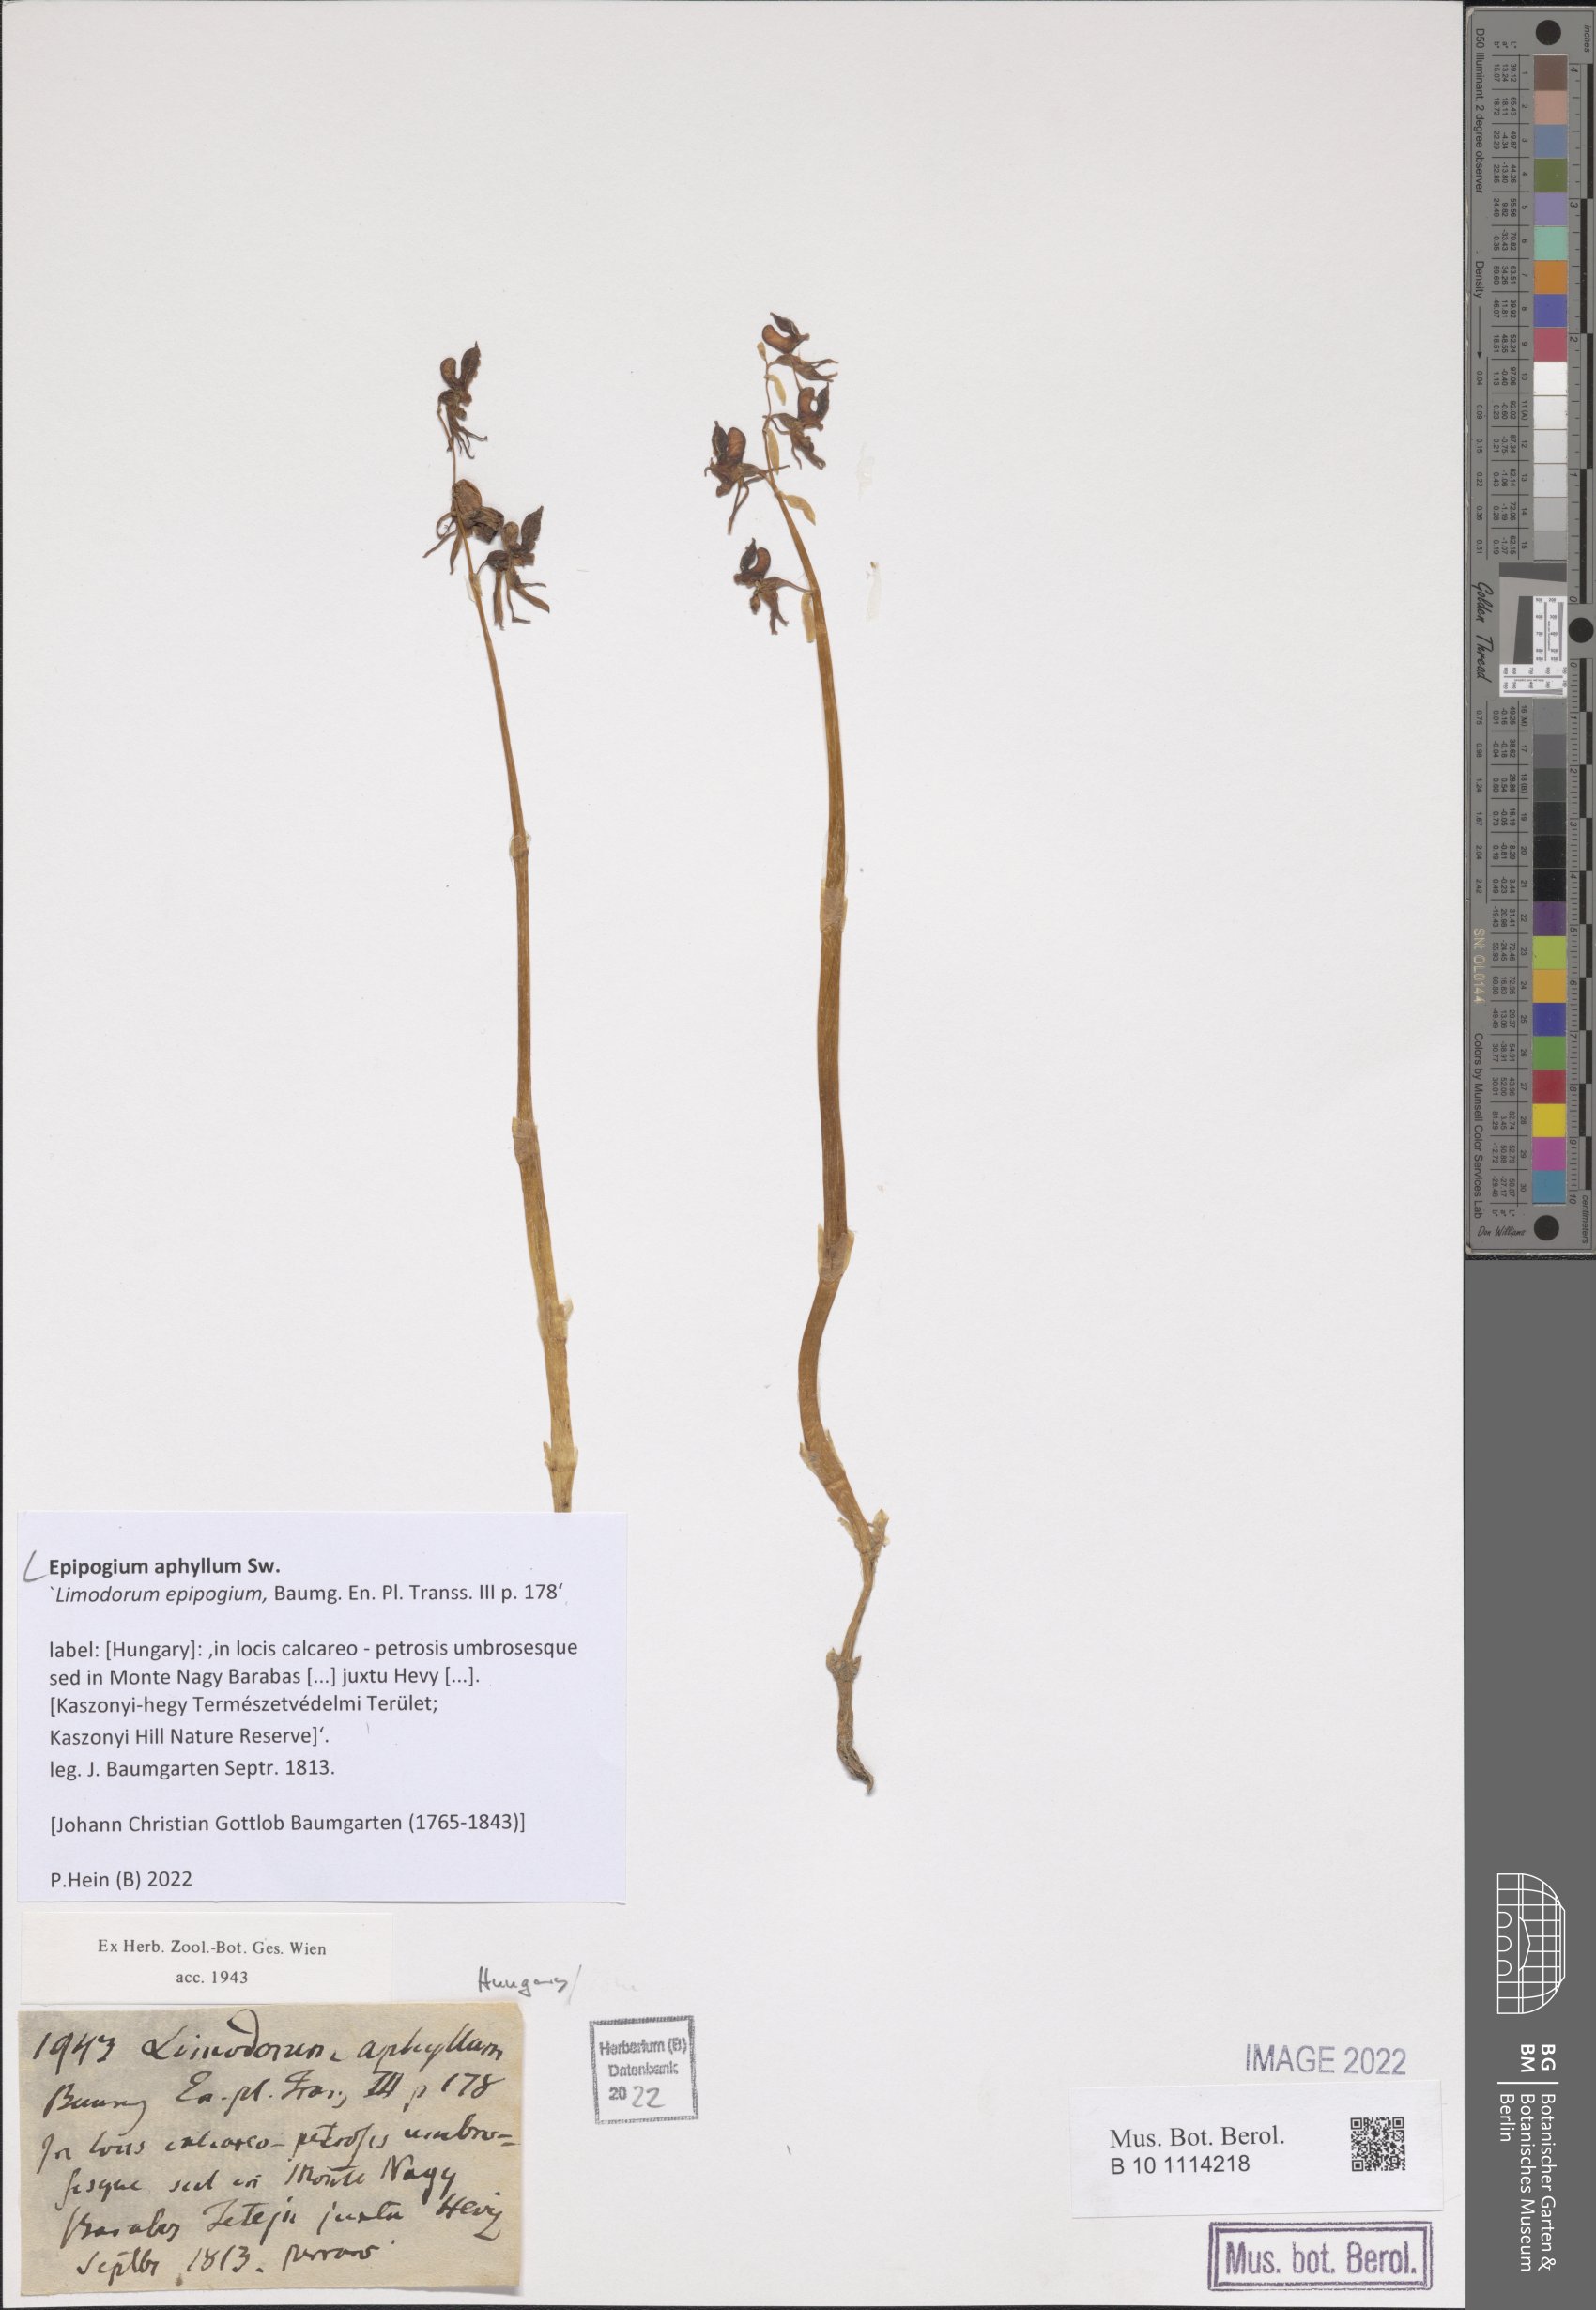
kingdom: Plantae
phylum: Tracheophyta
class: Liliopsida
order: Asparagales
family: Orchidaceae
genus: Epipogium
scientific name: Epipogium aphyllum
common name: Ghost orchid
